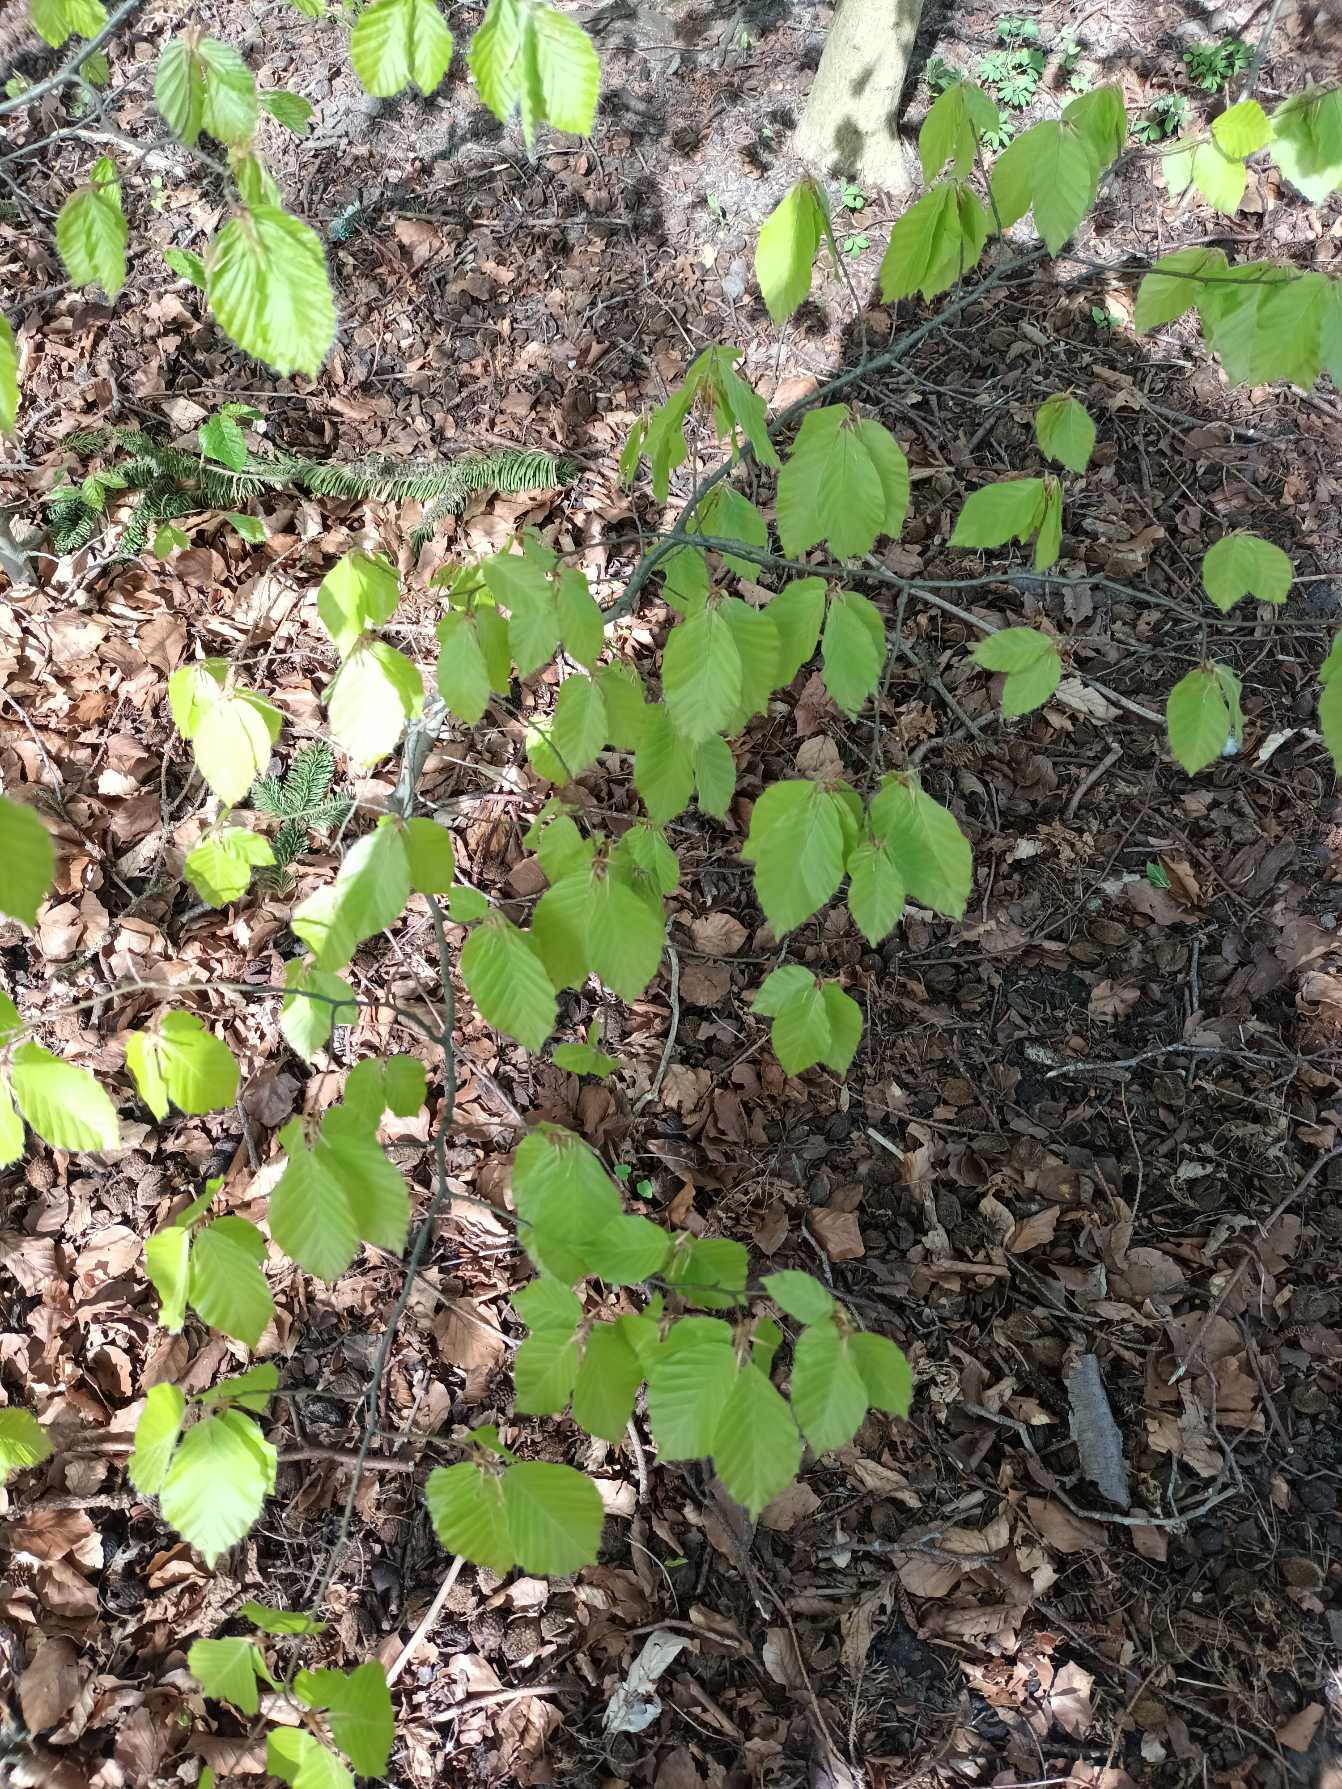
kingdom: Plantae
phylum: Tracheophyta
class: Magnoliopsida
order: Fagales
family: Fagaceae
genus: Fagus
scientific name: Fagus sylvatica
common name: Bøg
